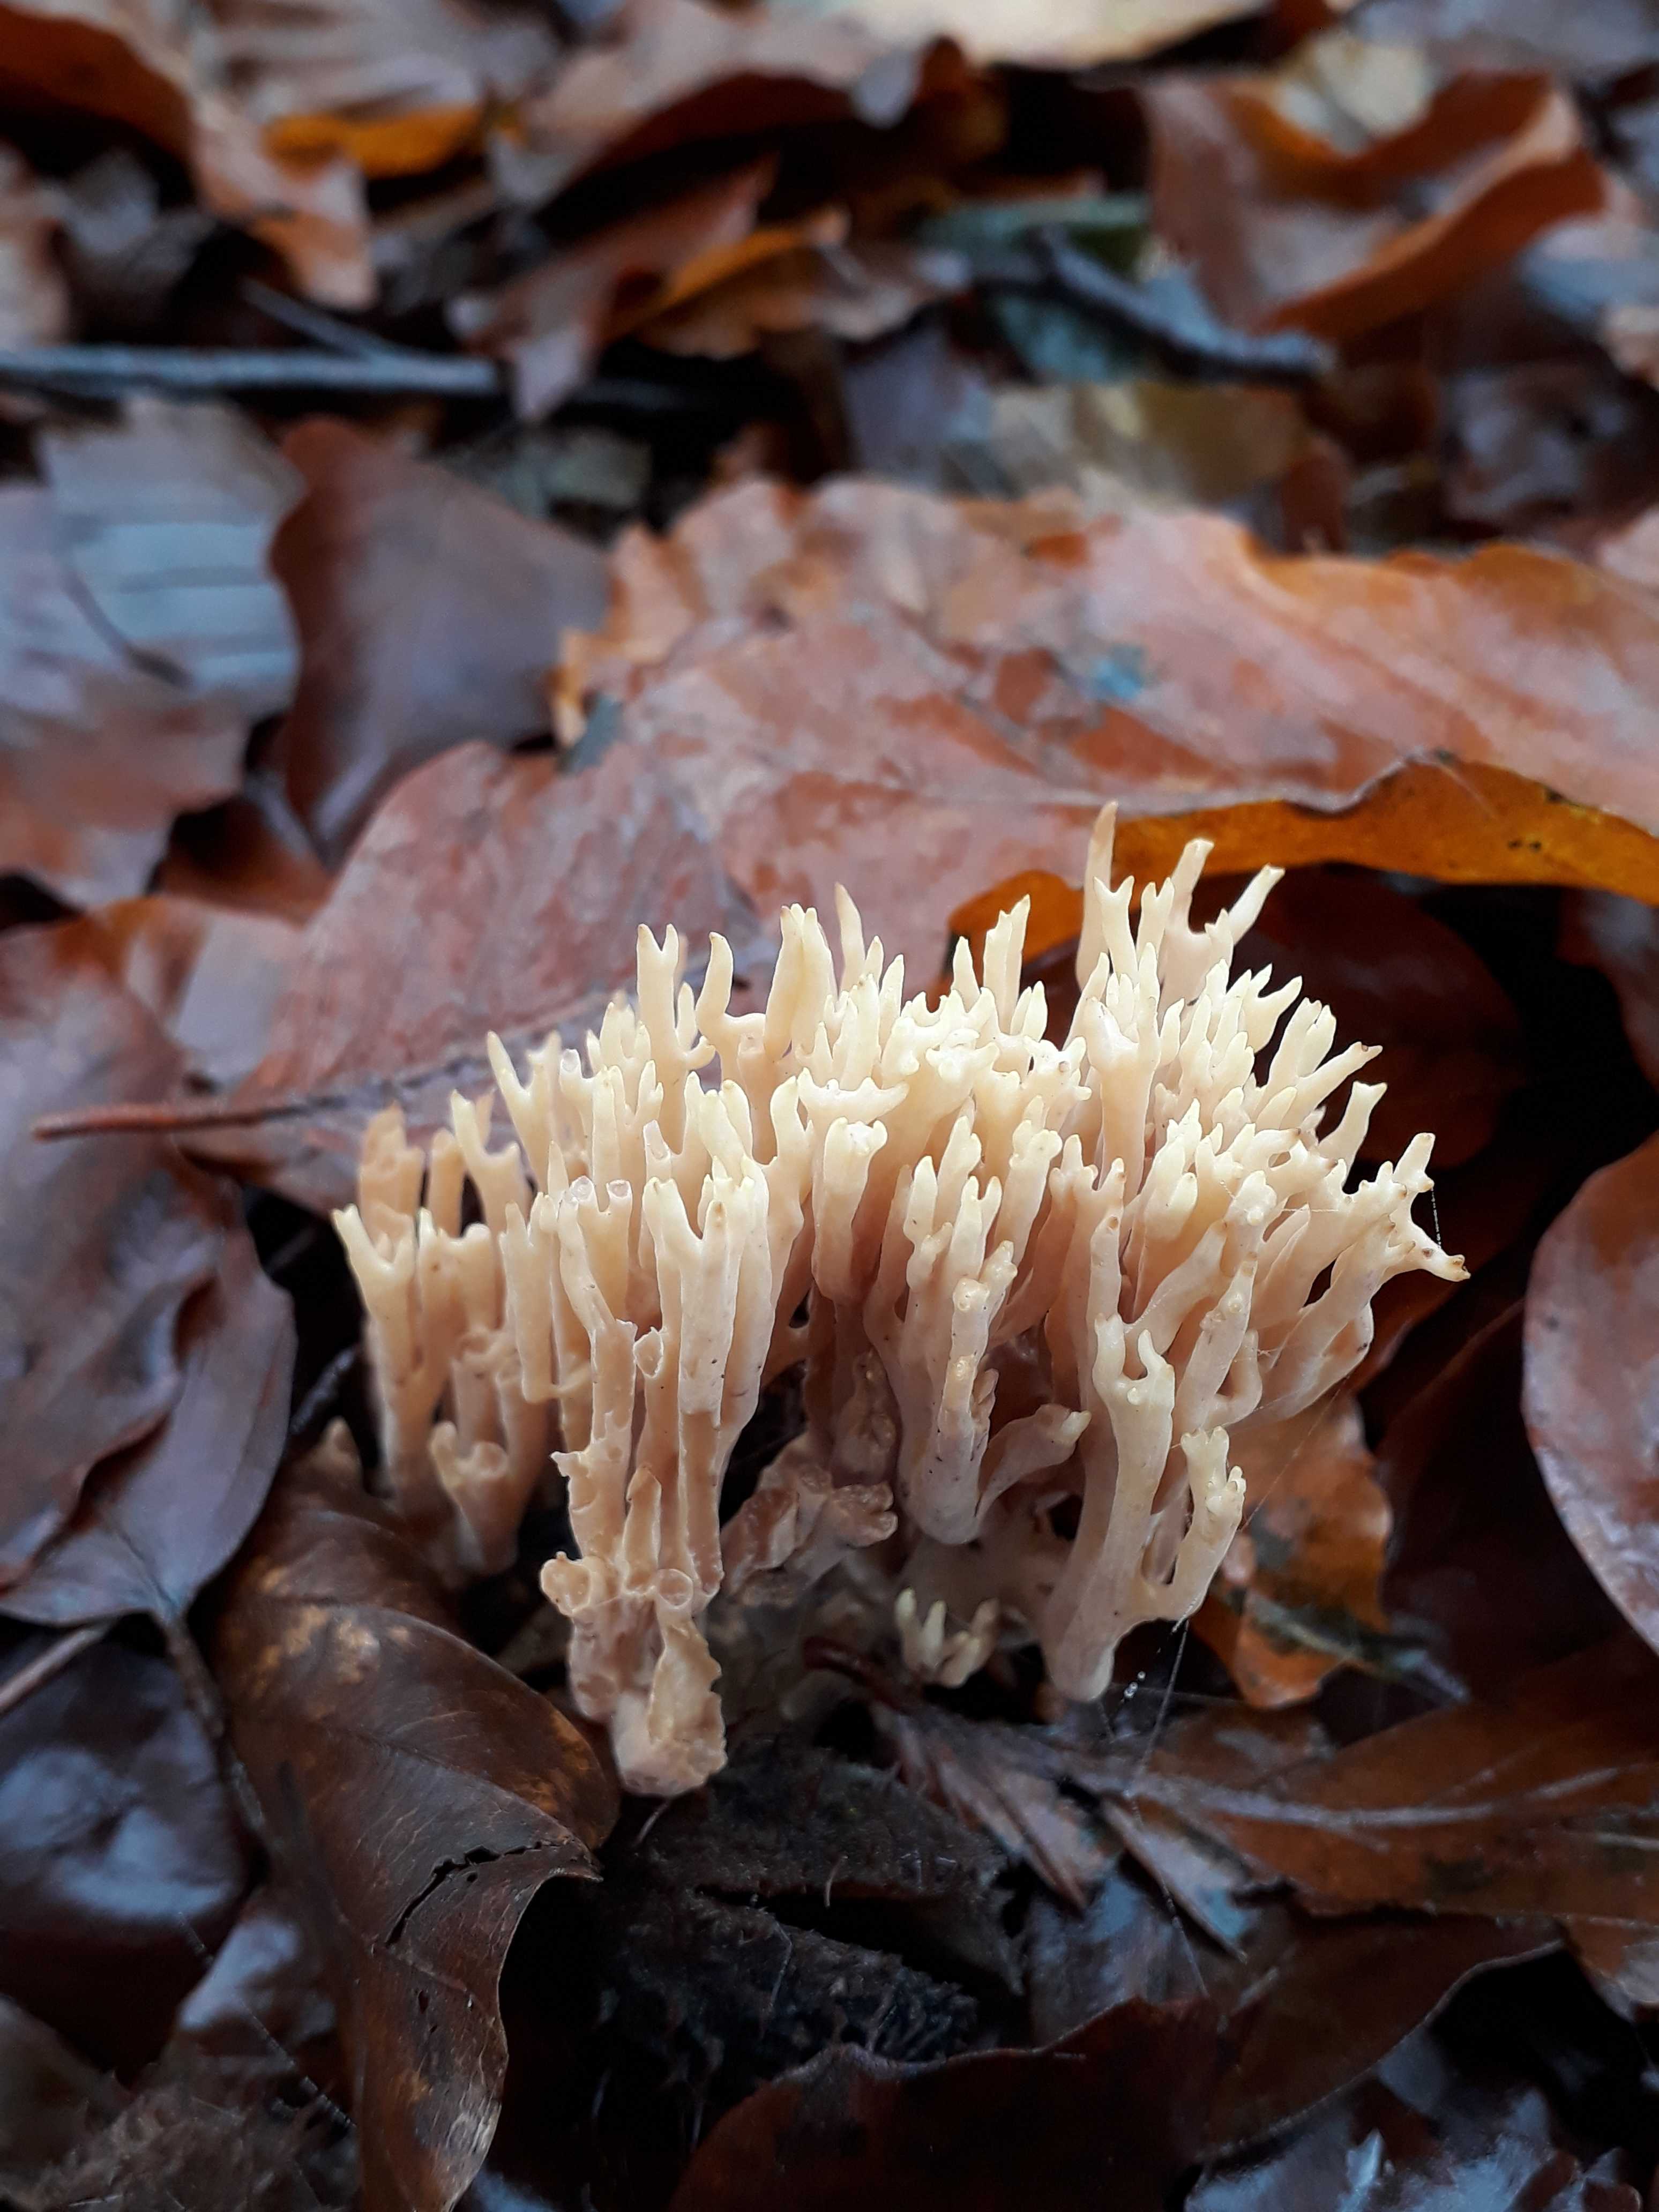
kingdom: Fungi
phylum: Basidiomycota
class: Agaricomycetes
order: Gomphales
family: Gomphaceae
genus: Ramaria
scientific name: Ramaria stricta
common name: rank koralsvamp
